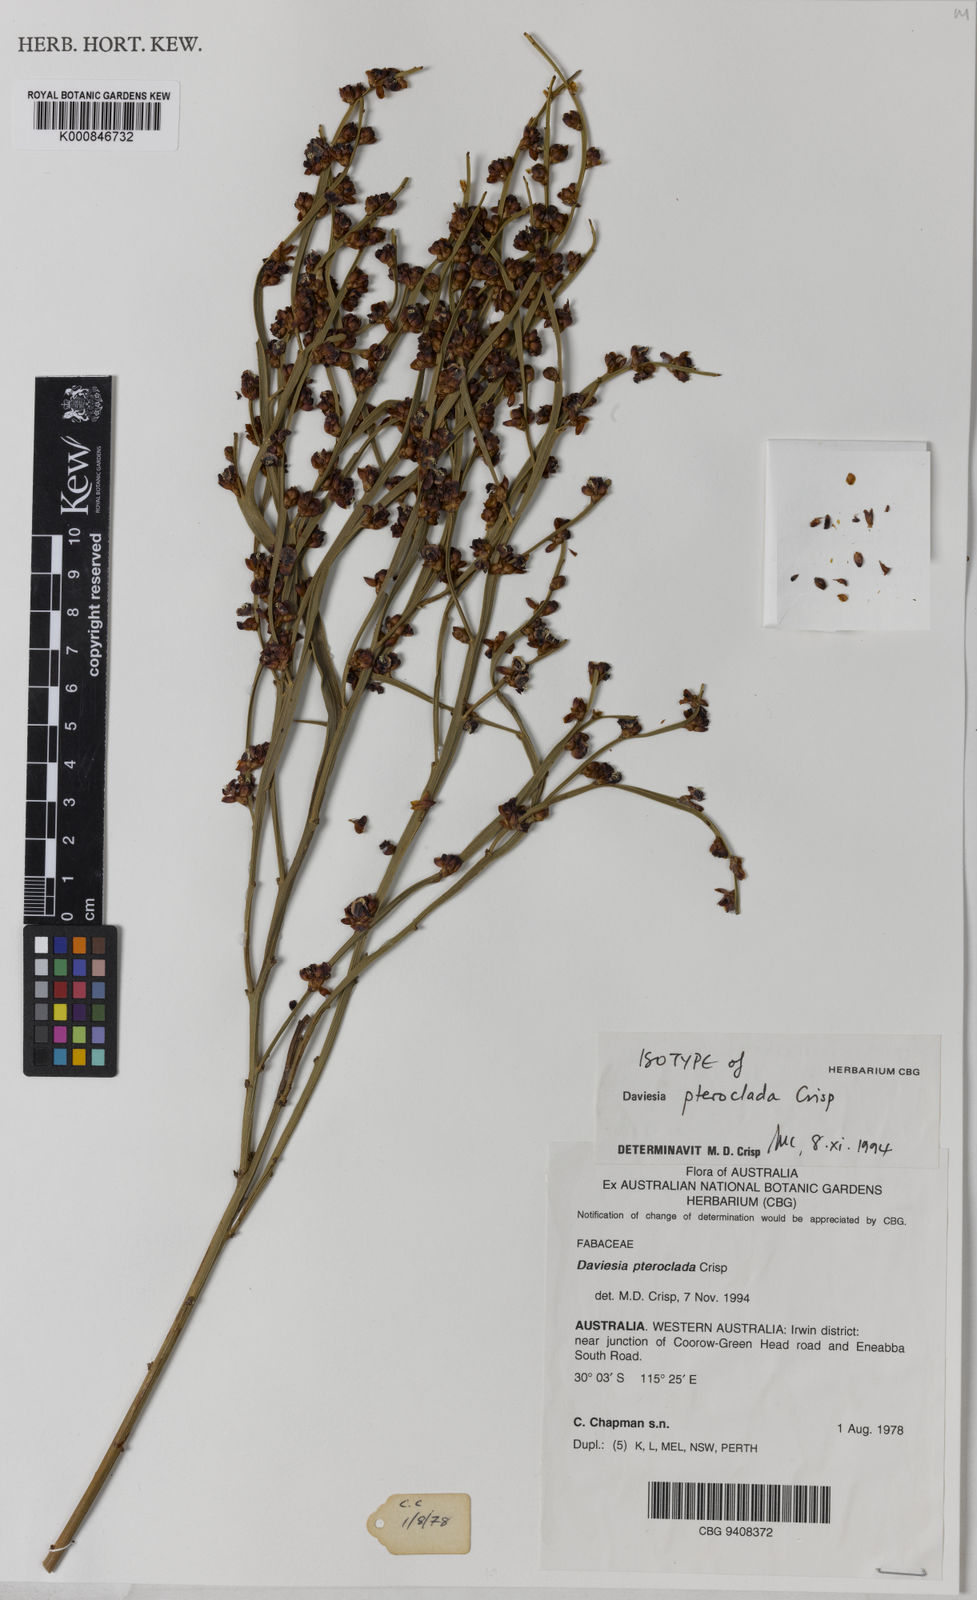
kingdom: Plantae
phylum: Tracheophyta
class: Magnoliopsida
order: Fabales
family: Fabaceae
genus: Daviesia
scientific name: Daviesia pteroclada
